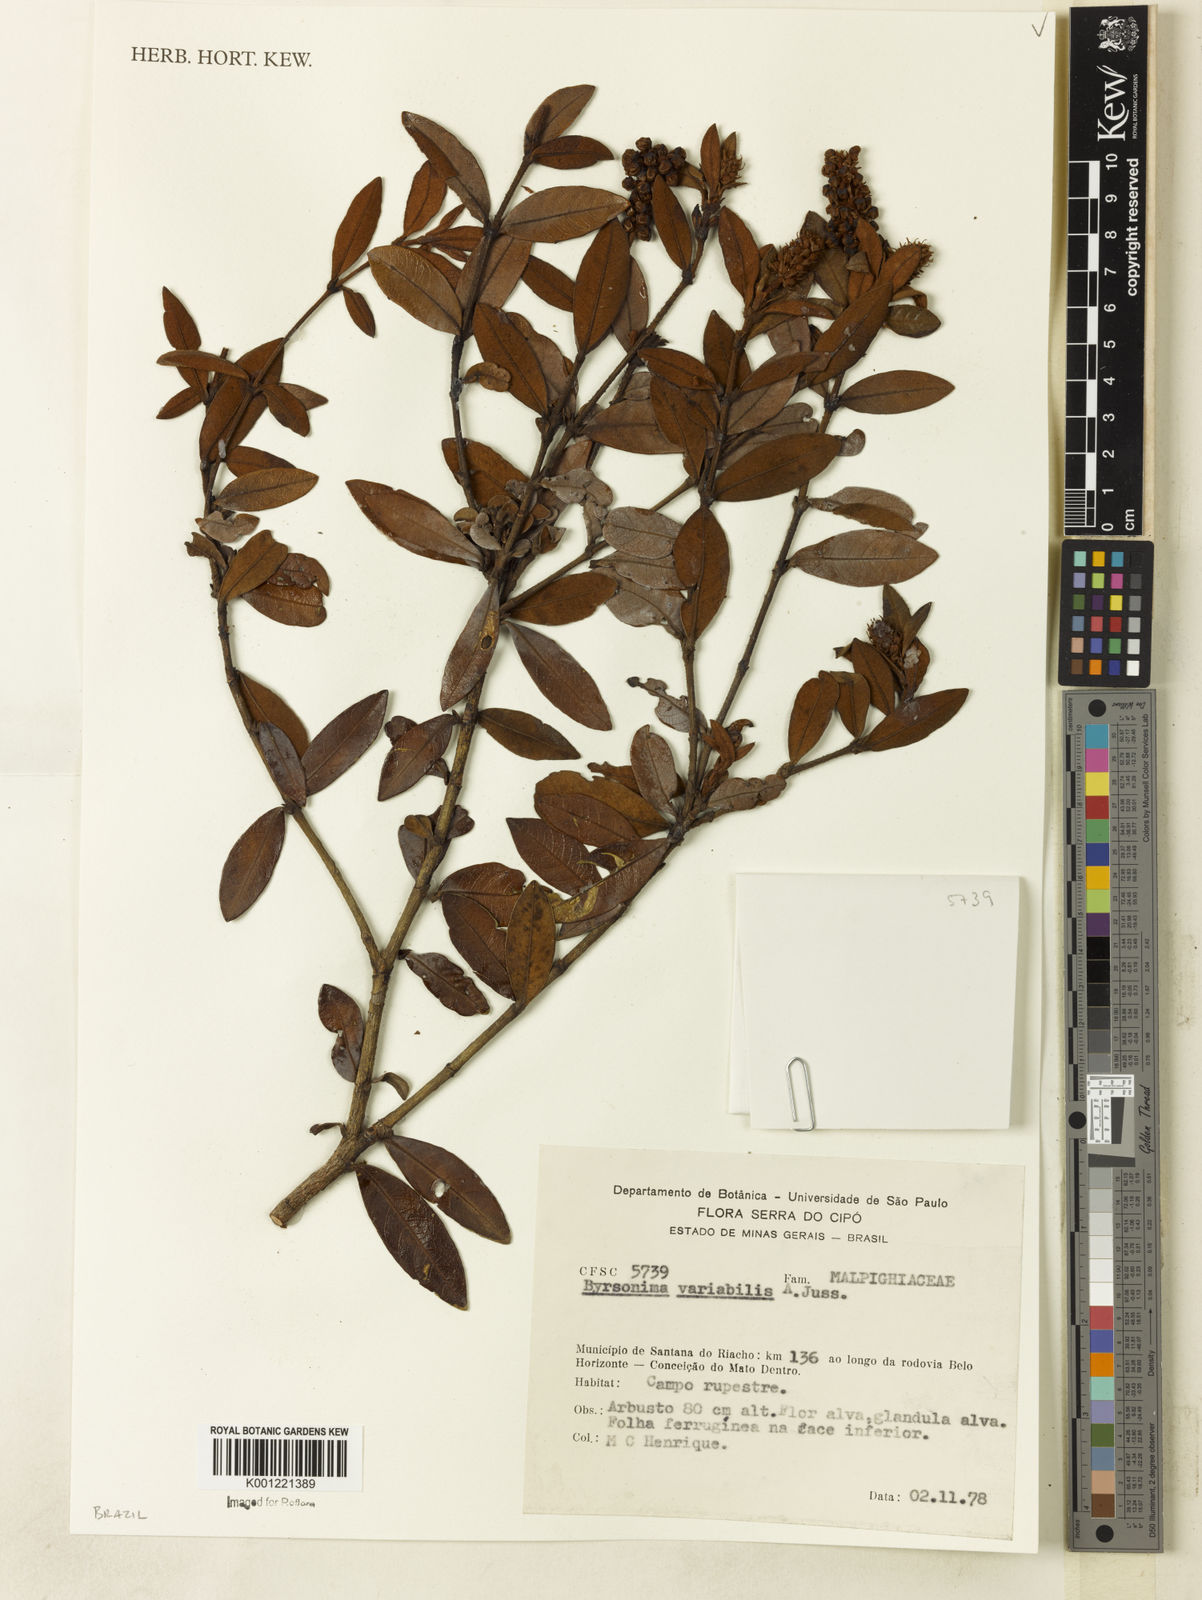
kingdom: Plantae
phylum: Tracheophyta
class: Magnoliopsida
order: Malpighiales
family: Malpighiaceae
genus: Byrsonima
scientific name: Byrsonima variabilis
